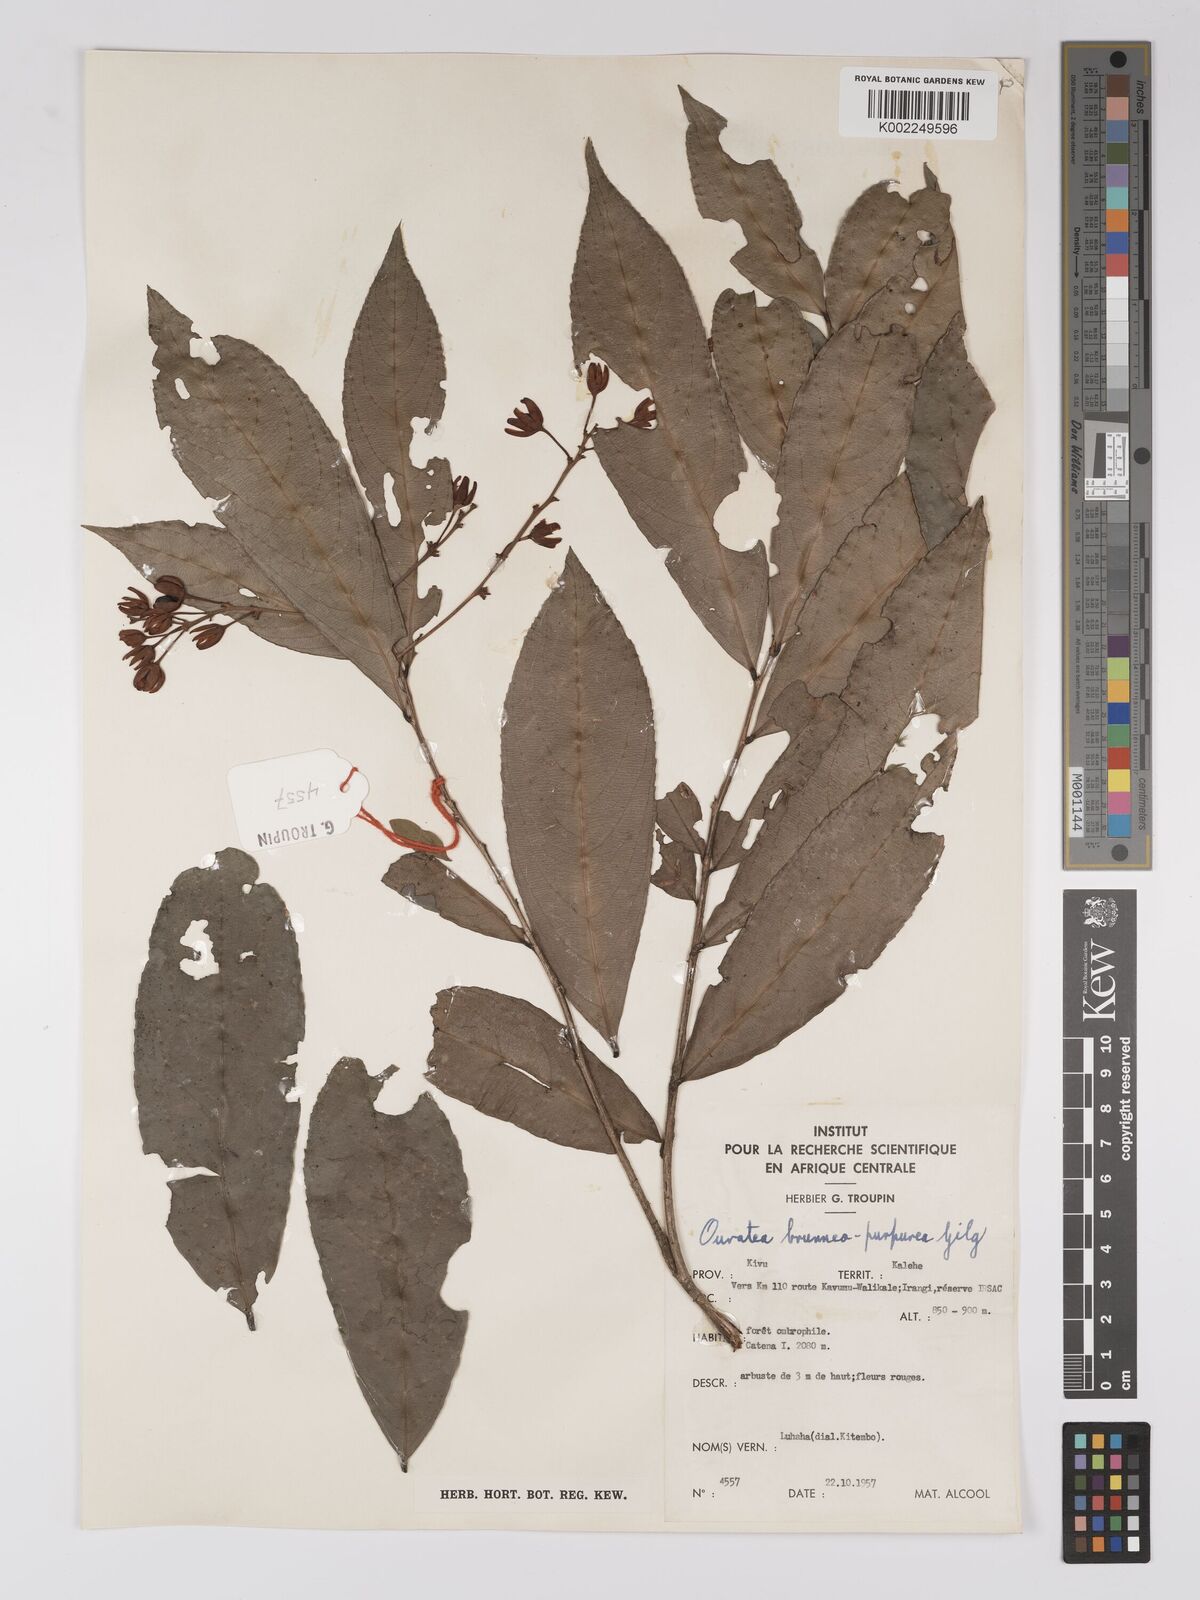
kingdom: Plantae
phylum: Tracheophyta
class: Magnoliopsida
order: Malpighiales
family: Ochnaceae
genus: Campylospermum
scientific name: Campylospermum reticulatum
